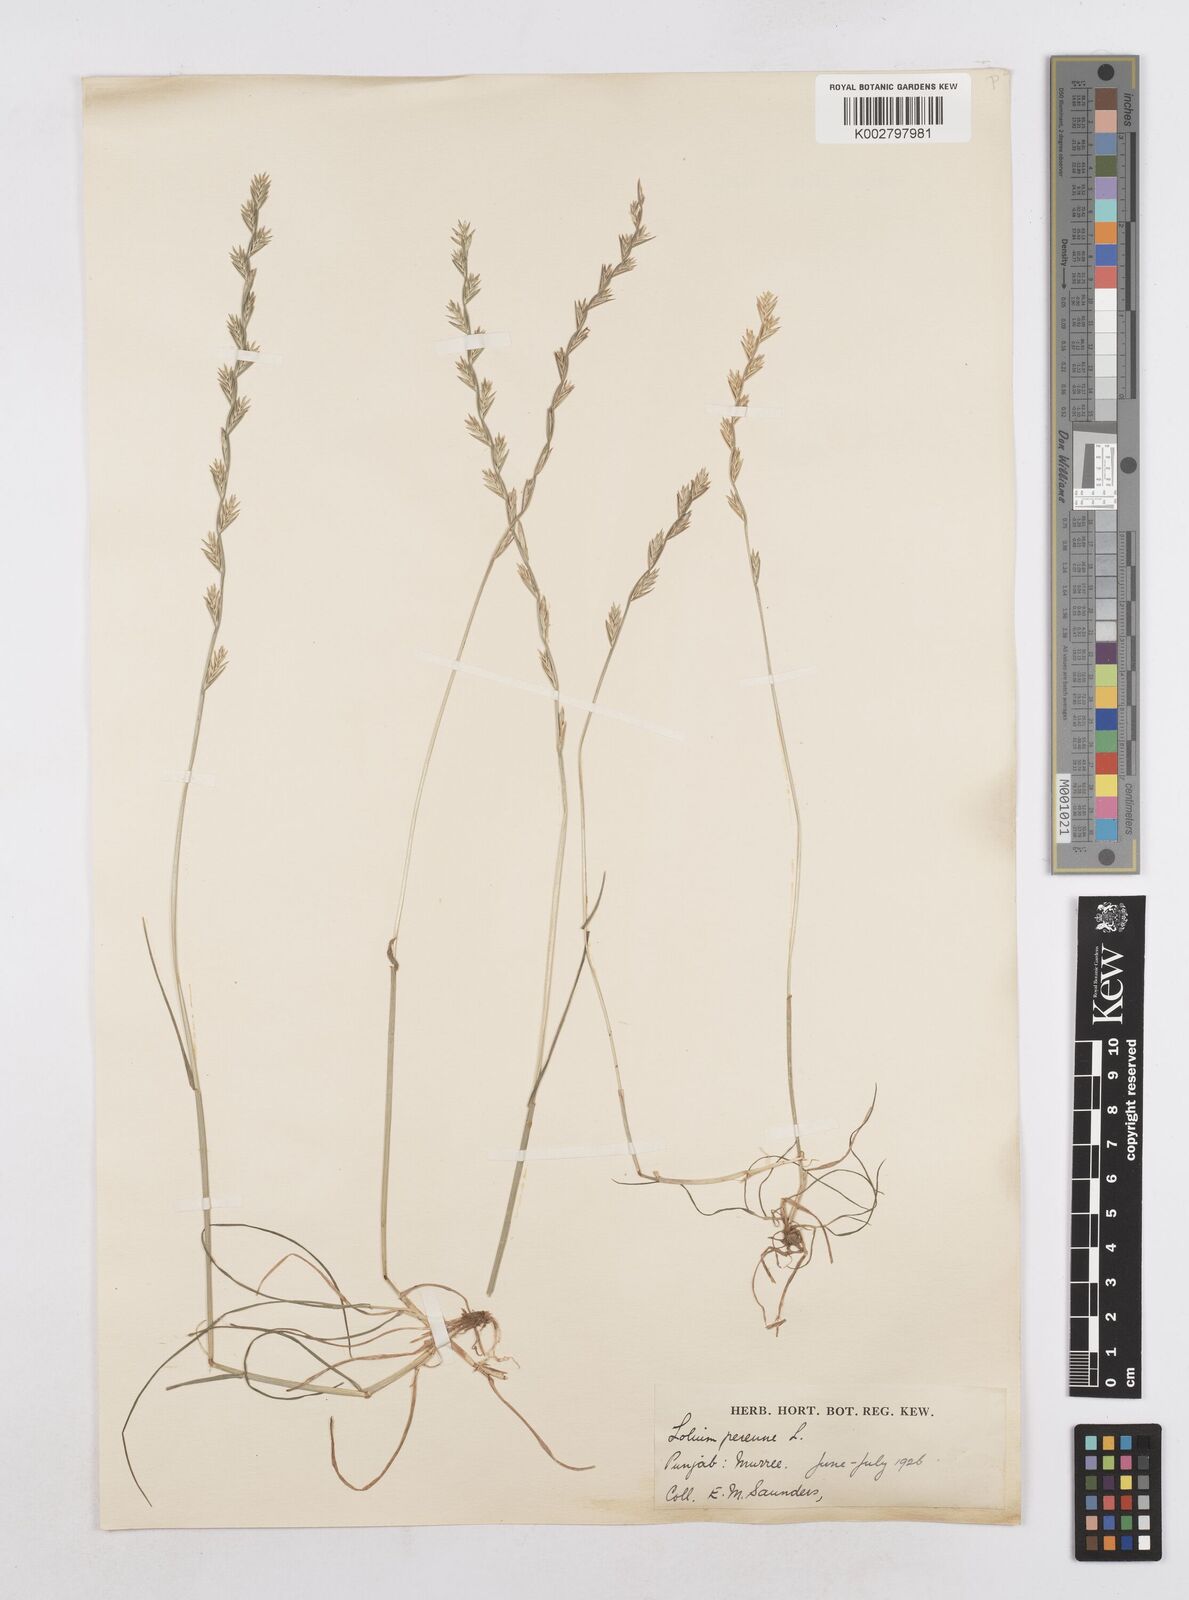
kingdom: Plantae
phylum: Tracheophyta
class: Liliopsida
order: Poales
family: Poaceae
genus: Lolium
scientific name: Lolium perenne
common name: Perennial ryegrass
